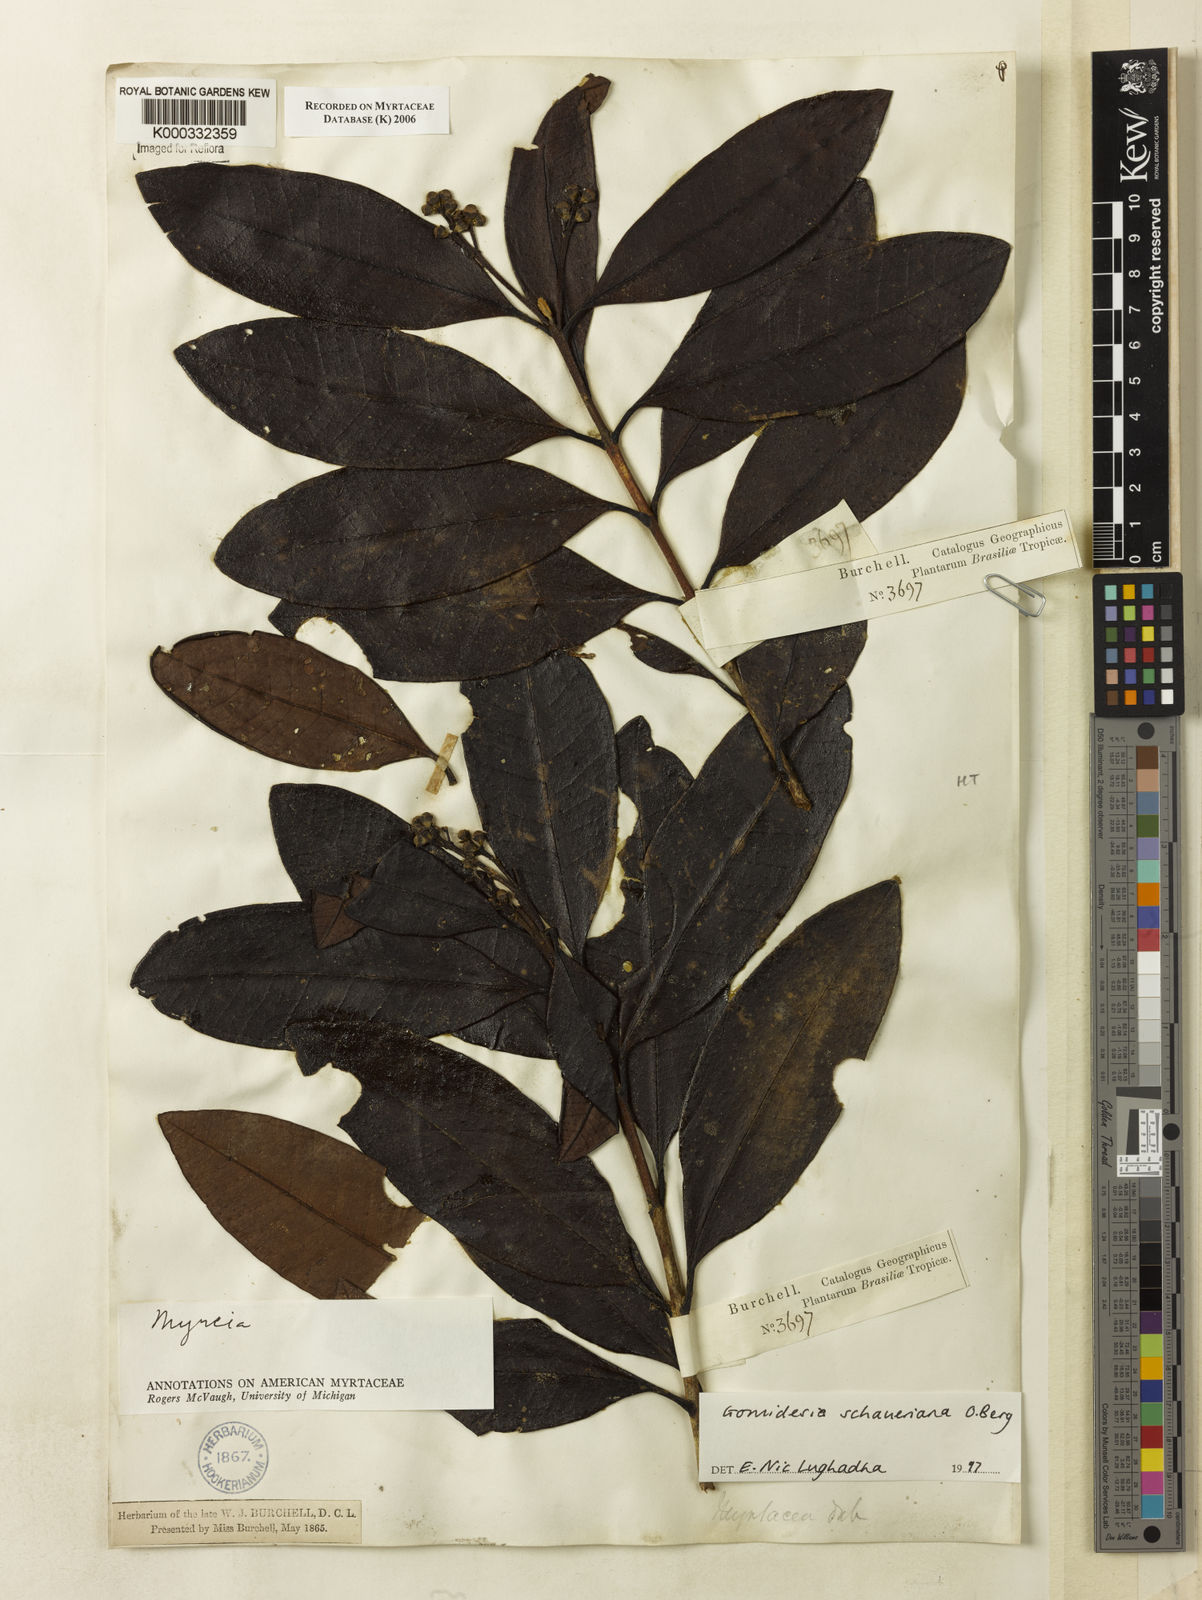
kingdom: Plantae
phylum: Tracheophyta
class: Magnoliopsida
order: Myrtales
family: Myrtaceae
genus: Myrcia
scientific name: Myrcia freyreissiana
